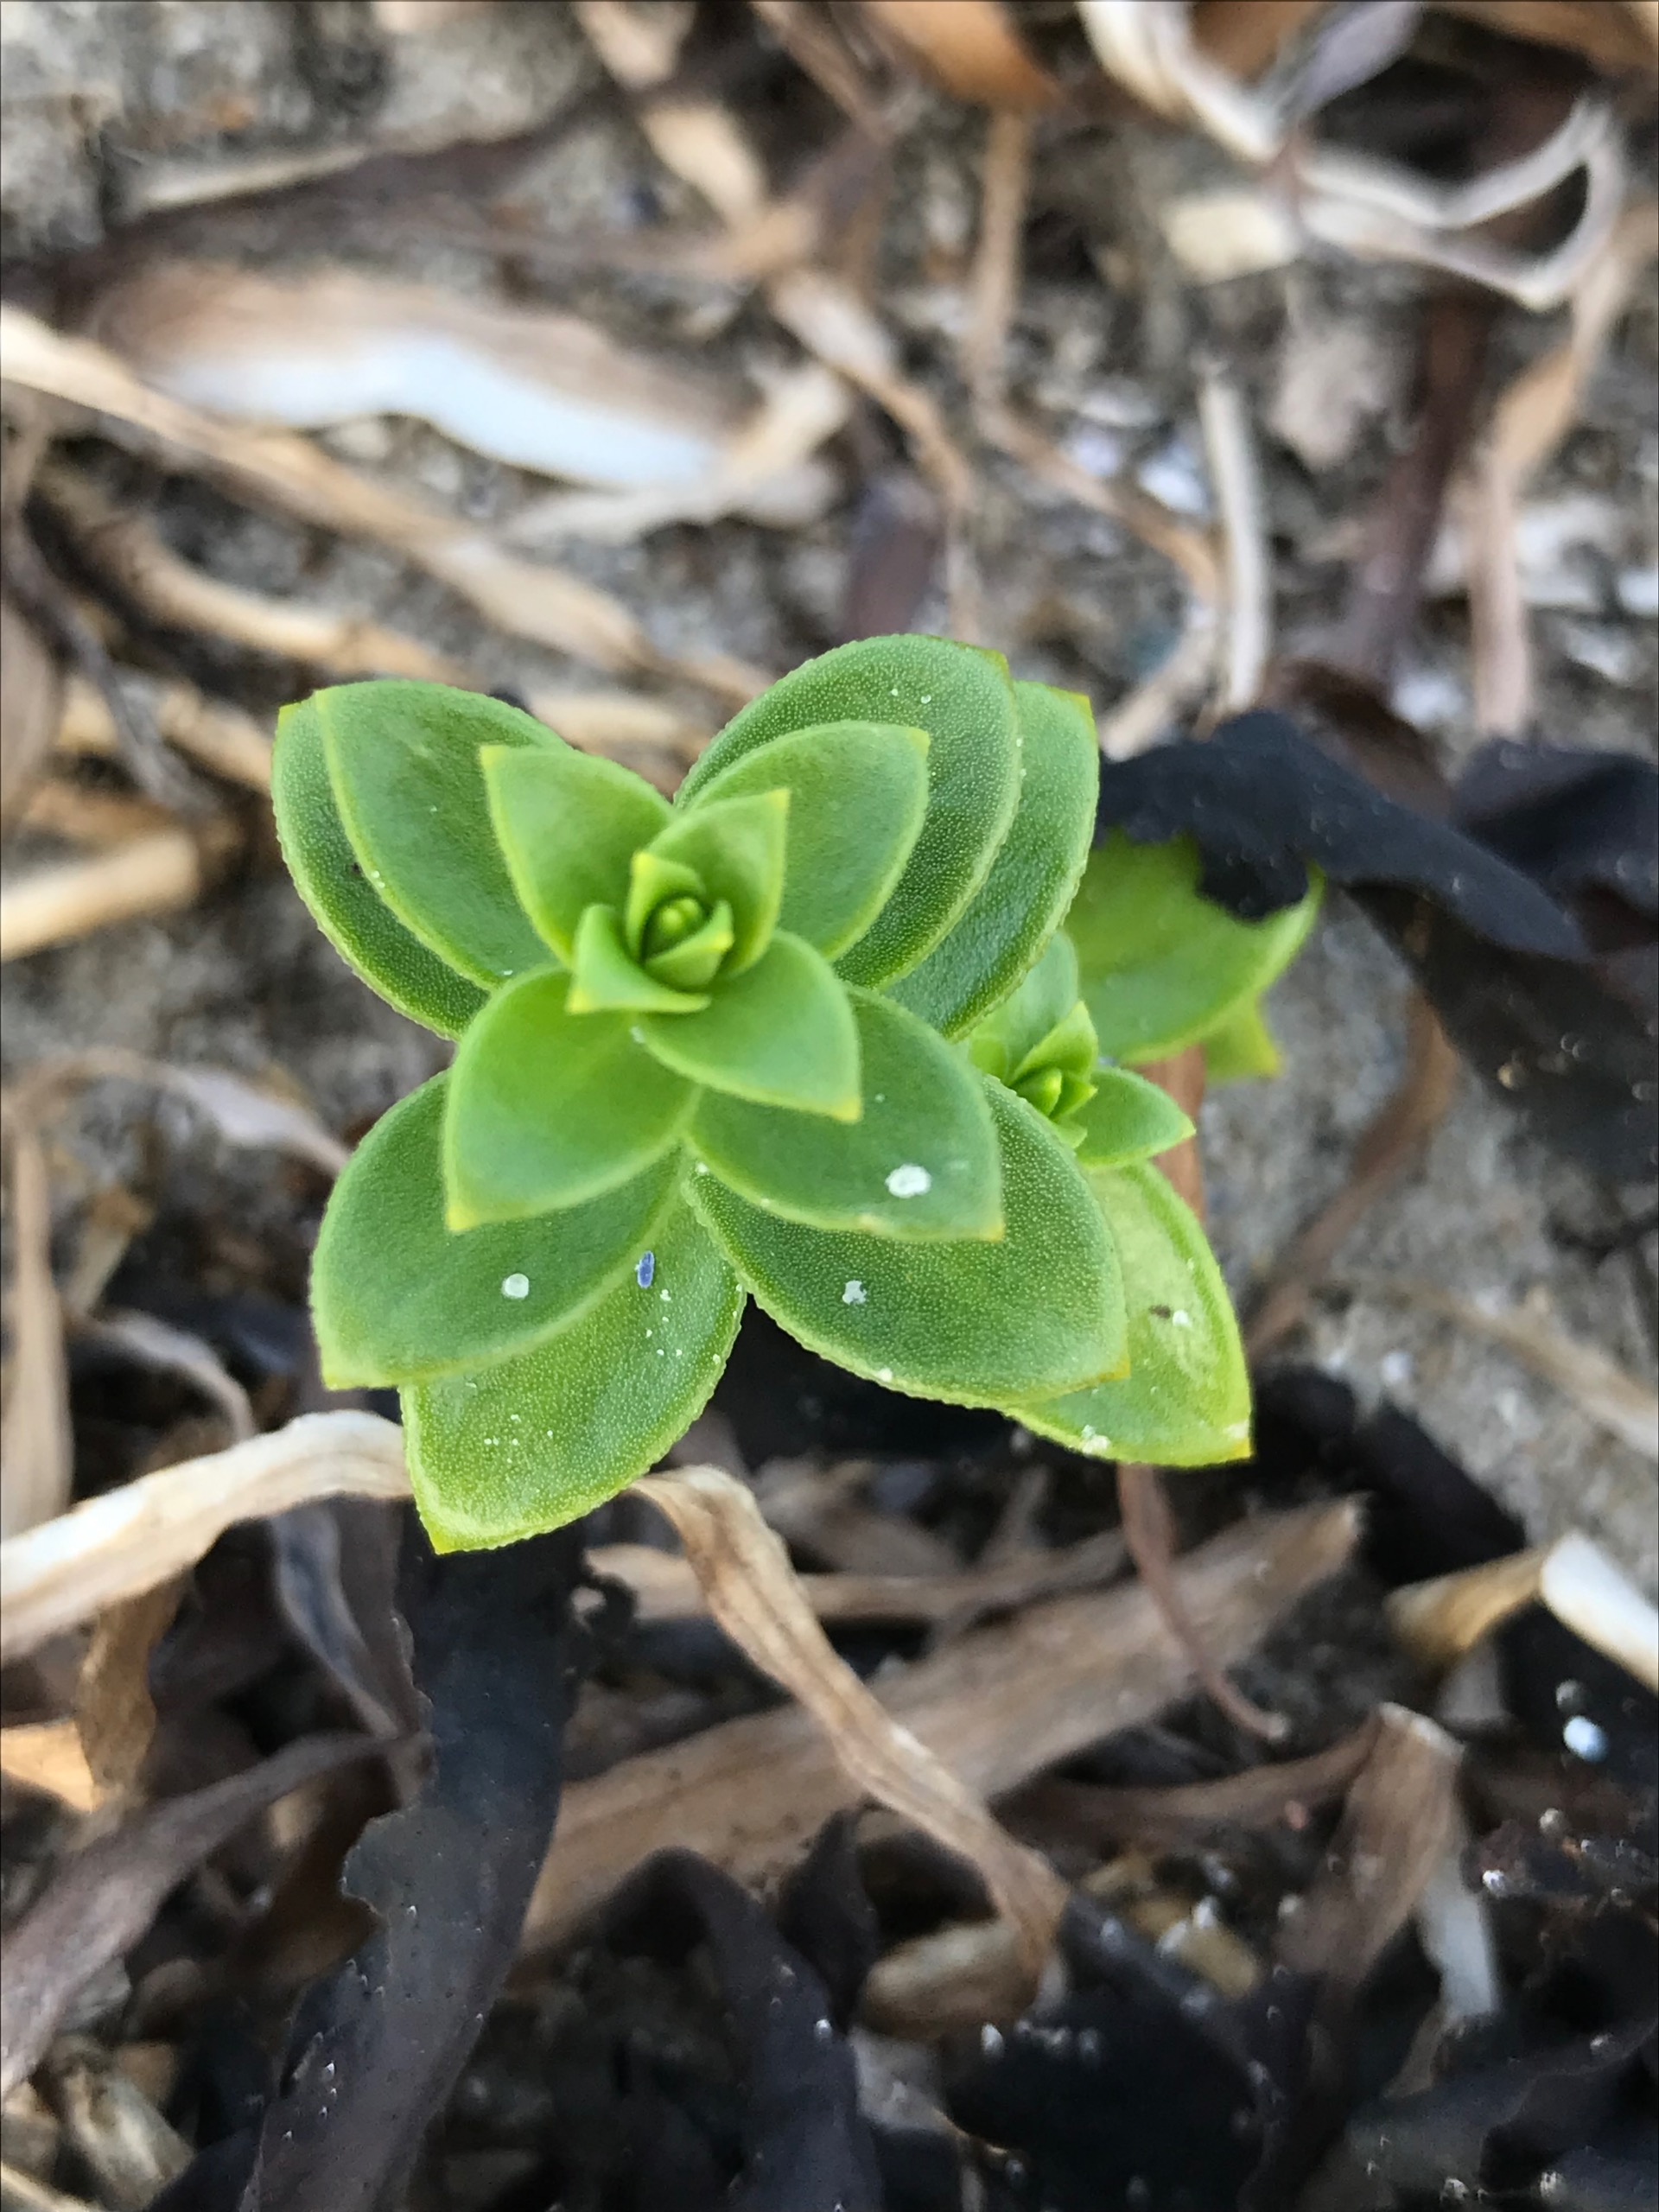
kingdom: Plantae
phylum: Tracheophyta
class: Magnoliopsida
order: Caryophyllales
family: Caryophyllaceae
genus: Honckenya
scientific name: Honckenya peploides
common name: Strandarve
